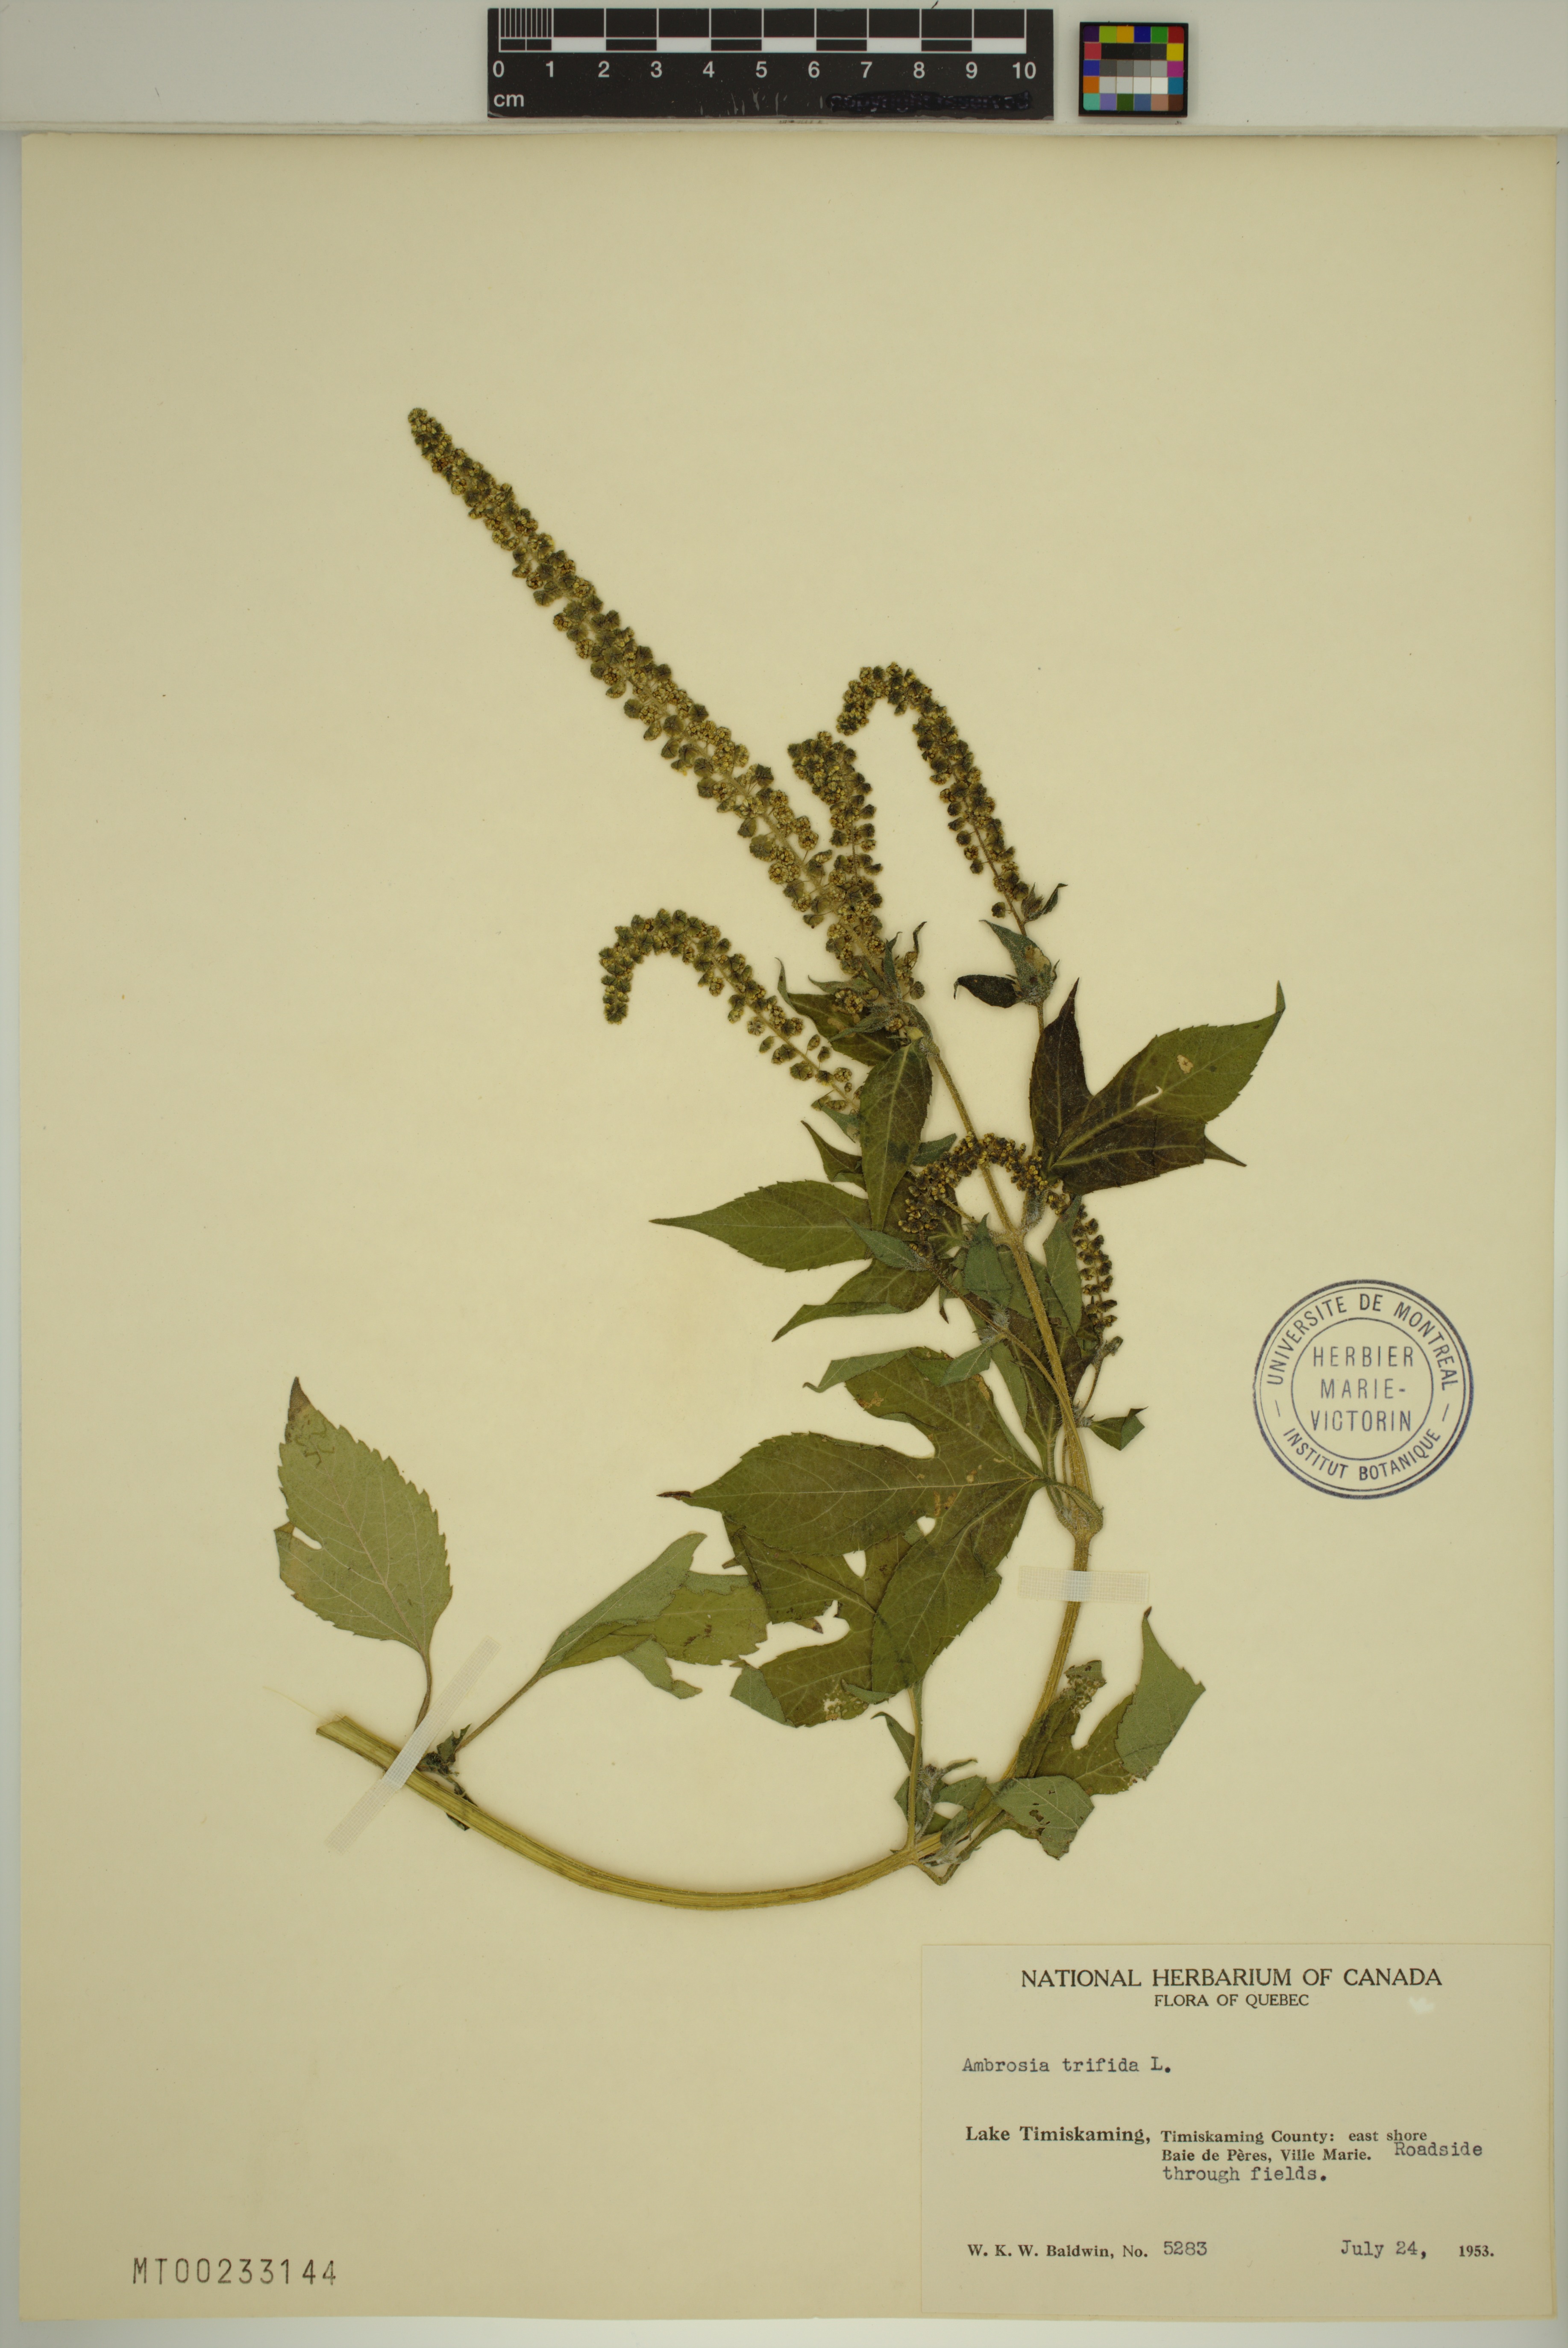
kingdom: Plantae
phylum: Tracheophyta
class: Magnoliopsida
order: Asterales
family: Asteraceae
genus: Ambrosia
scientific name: Ambrosia trifida
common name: Giant ragweed
